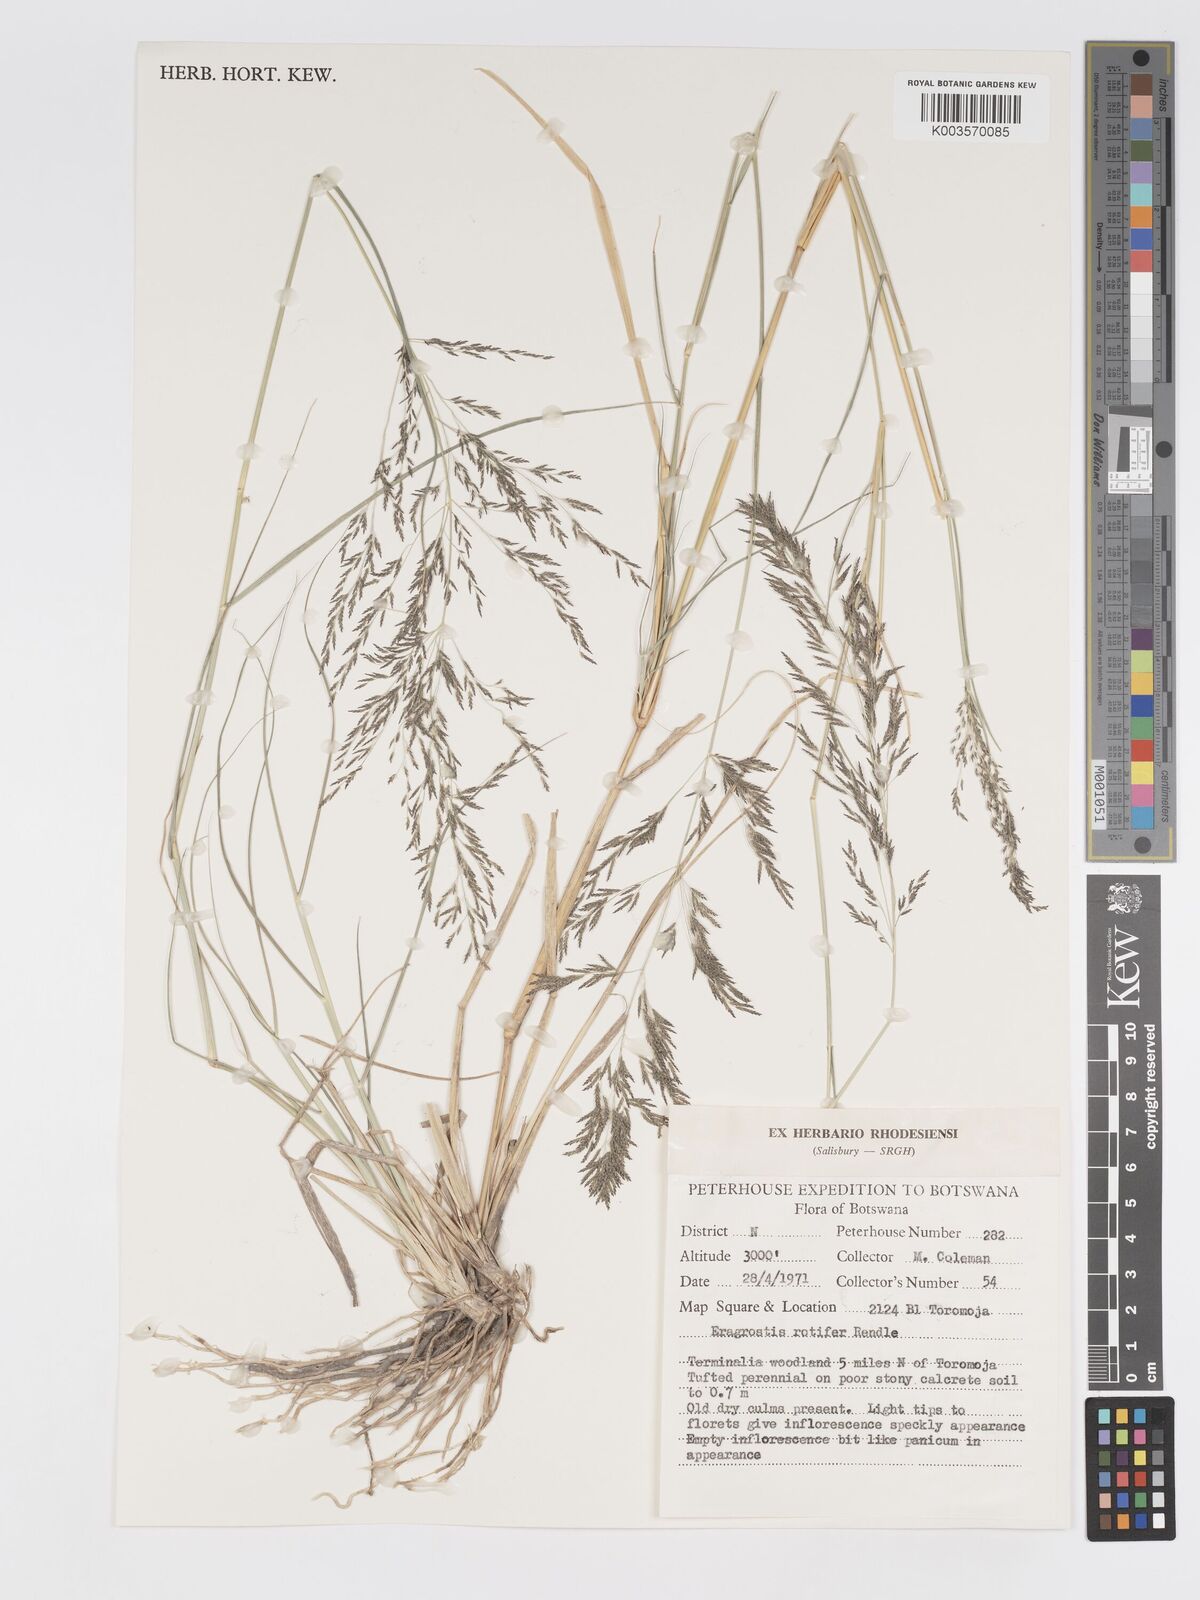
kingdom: Plantae
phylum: Tracheophyta
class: Liliopsida
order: Poales
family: Poaceae
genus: Eragrostis
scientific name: Eragrostis rotifer
